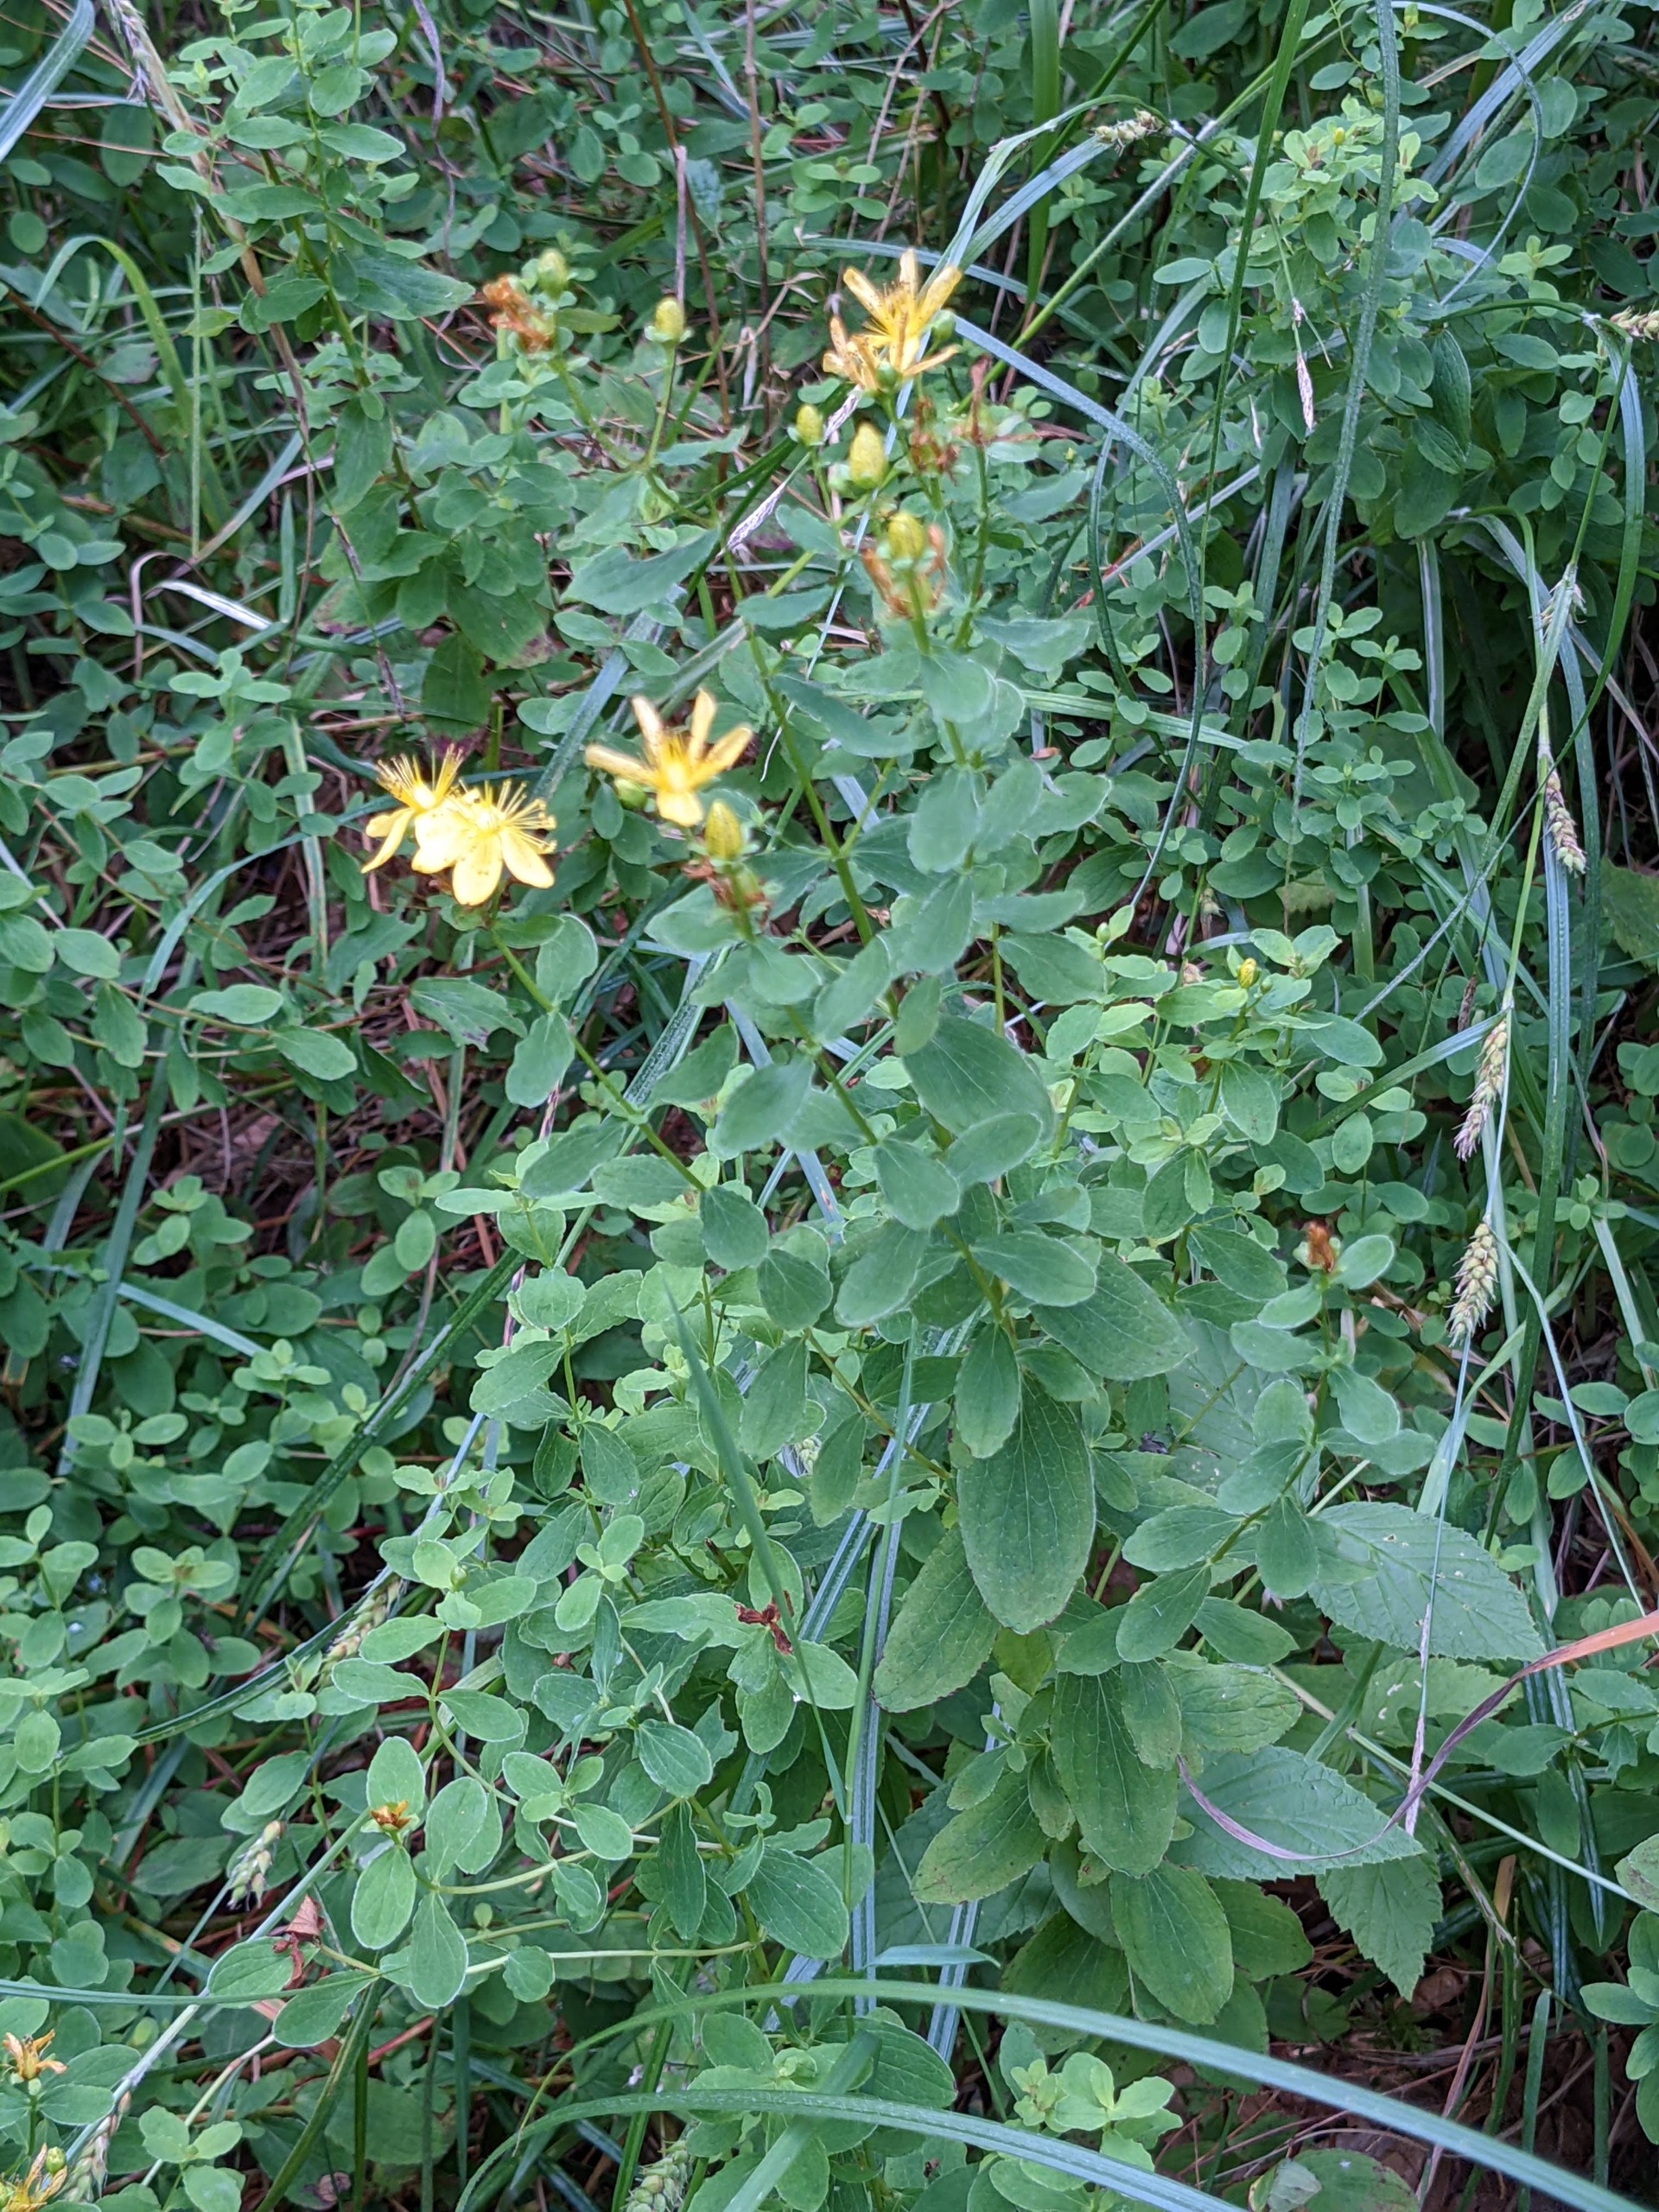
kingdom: Plantae
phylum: Tracheophyta
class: Magnoliopsida
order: Malpighiales
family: Hypericaceae
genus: Hypericum
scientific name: Hypericum maculatum
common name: Kantet perikon
